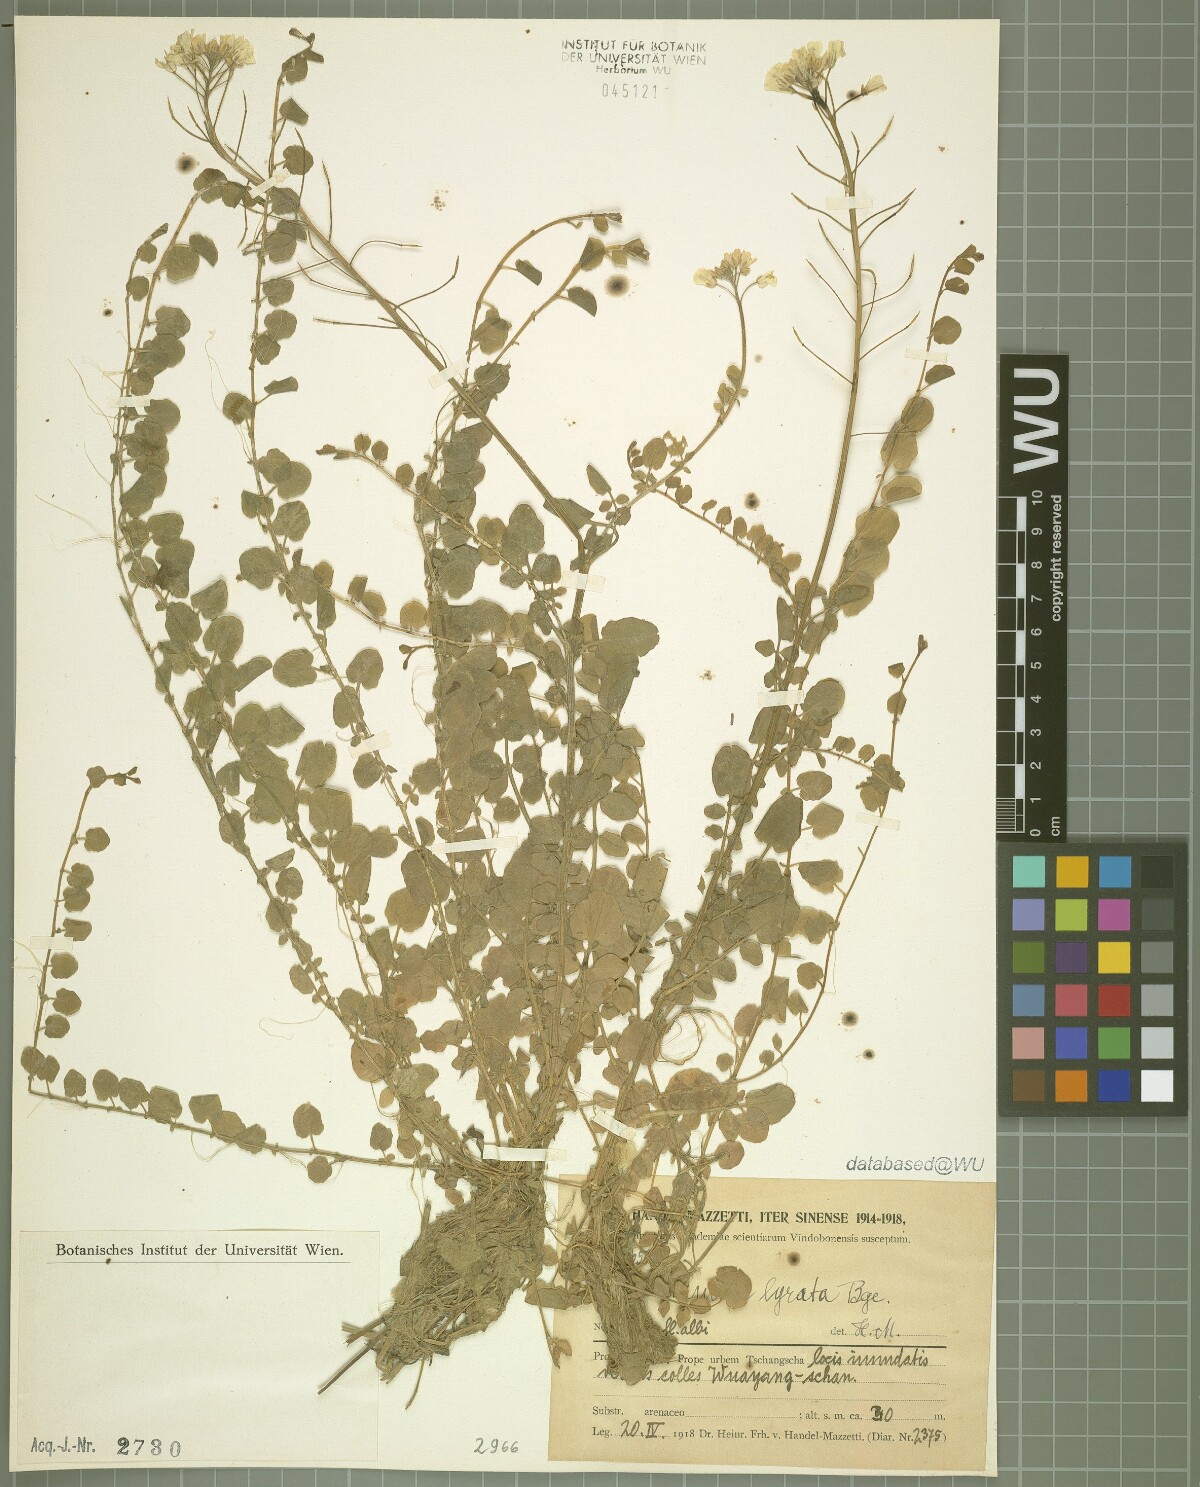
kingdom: Plantae
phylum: Tracheophyta
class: Magnoliopsida
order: Brassicales
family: Brassicaceae
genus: Cardamine
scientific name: Cardamine lyrata
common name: Chinese-ivy
